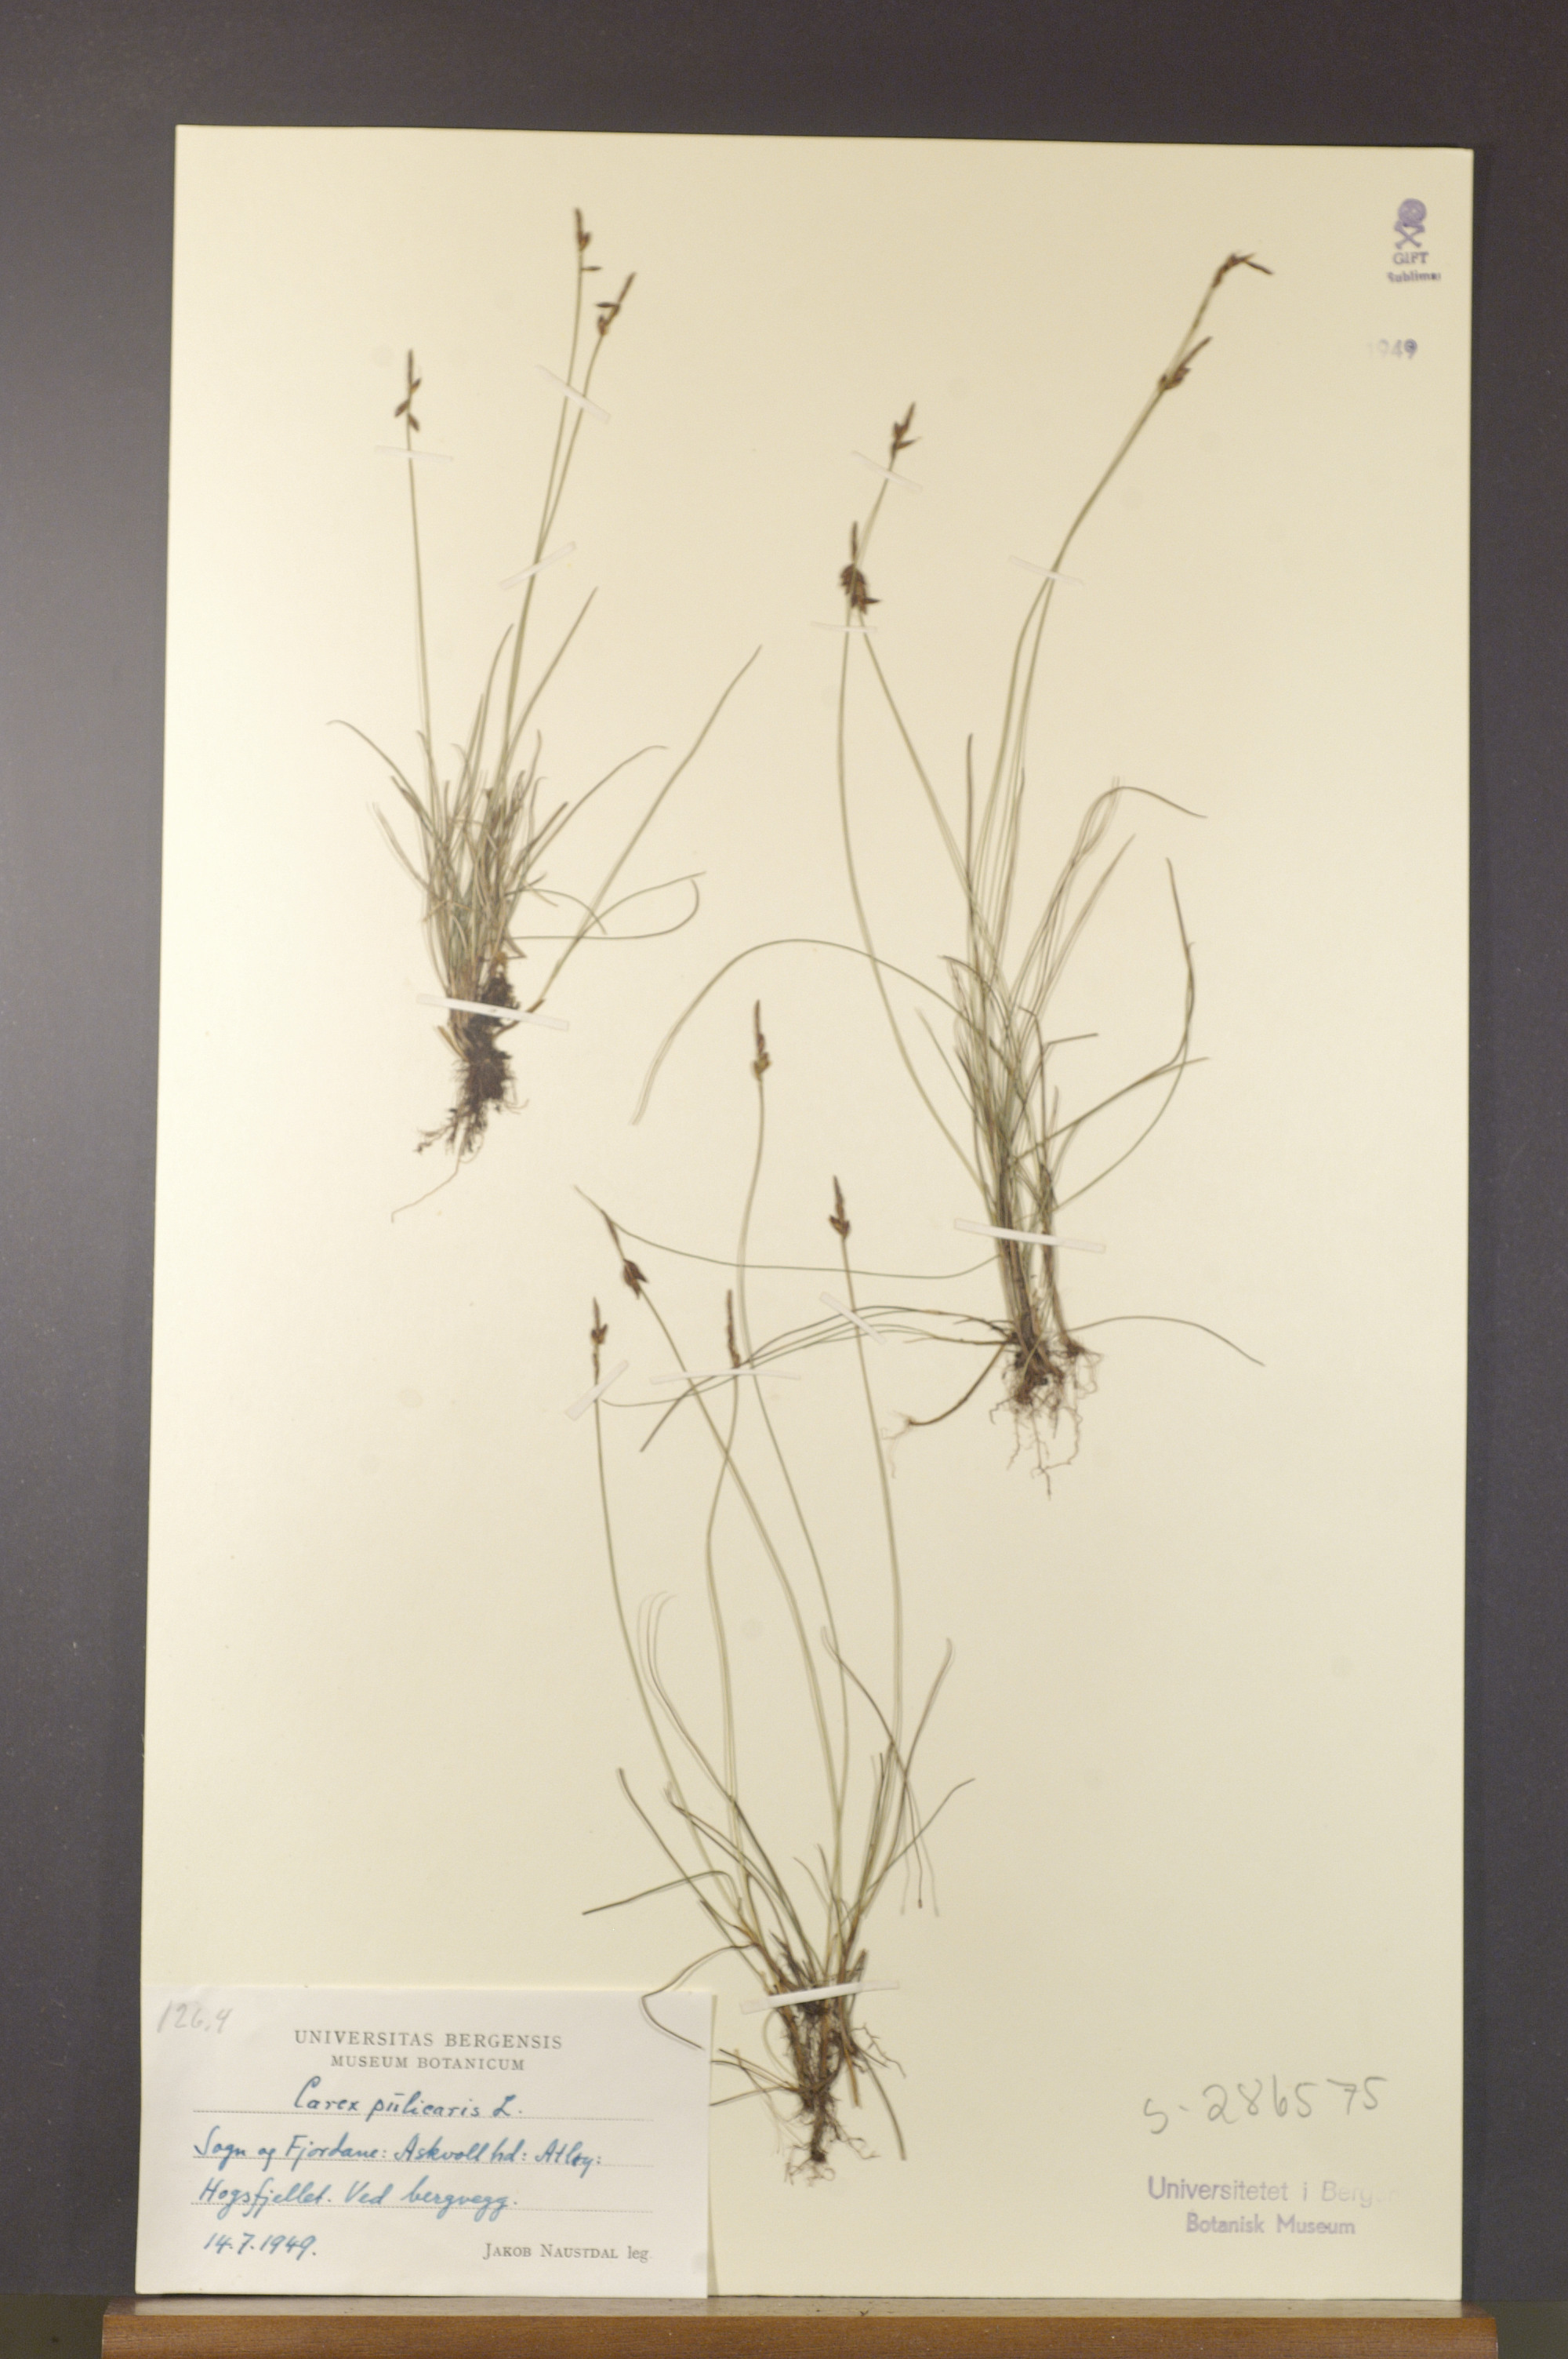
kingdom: Plantae
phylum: Tracheophyta
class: Liliopsida
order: Poales
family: Cyperaceae
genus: Carex
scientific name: Carex pulicaris
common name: Flea sedge
